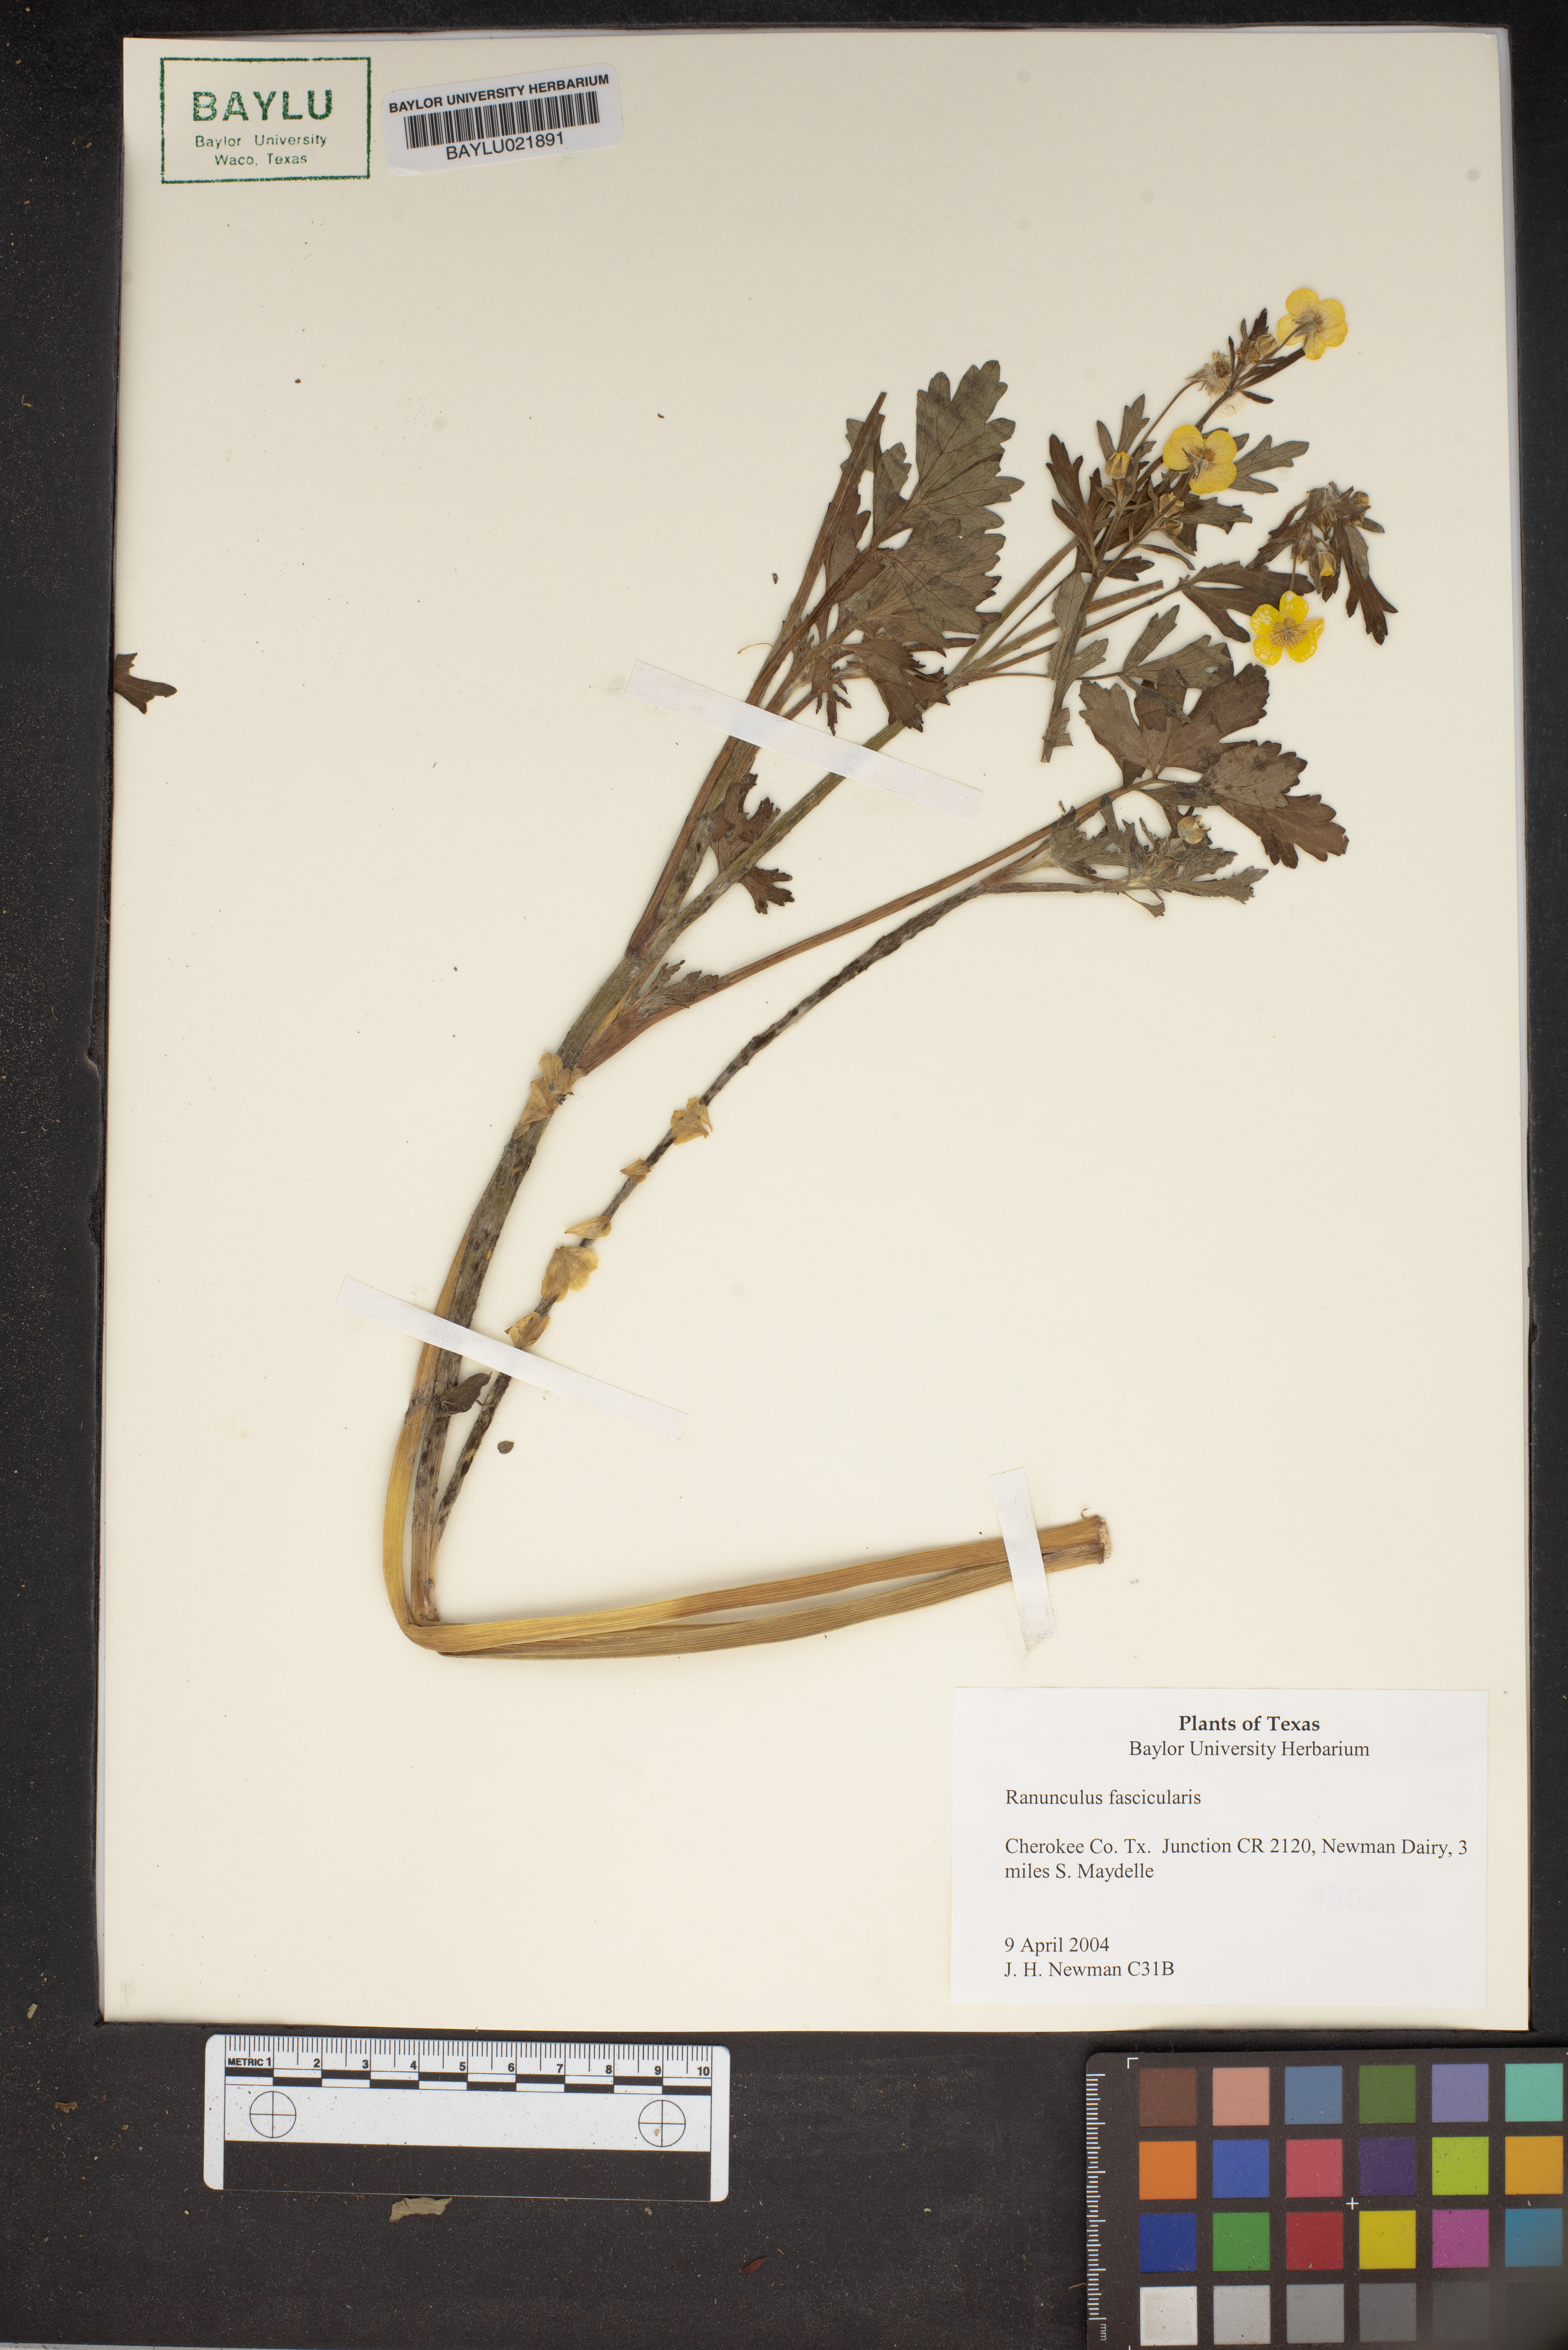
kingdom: Plantae
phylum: Tracheophyta
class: Magnoliopsida
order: Ranunculales
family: Ranunculaceae
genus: Ranunculus
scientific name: Ranunculus fascicularis
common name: Early buttercup
